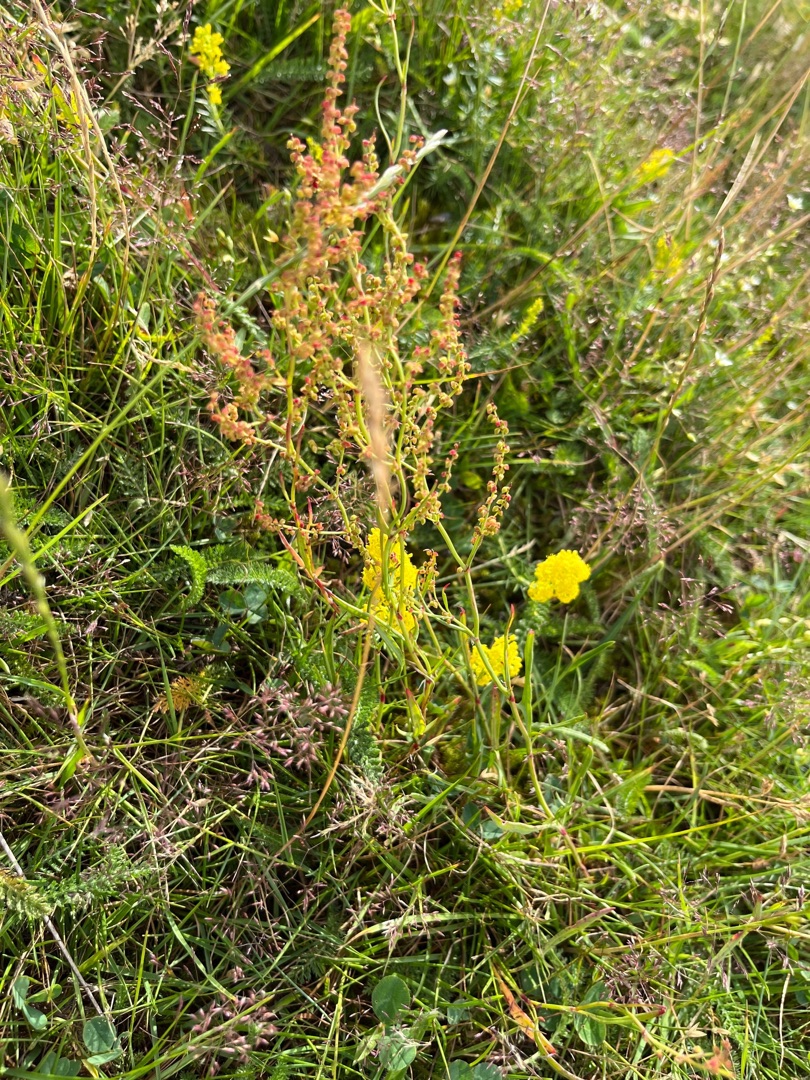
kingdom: Plantae
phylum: Tracheophyta
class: Magnoliopsida
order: Caryophyllales
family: Polygonaceae
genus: Rumex
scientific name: Rumex acetosella
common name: Rødknæ
